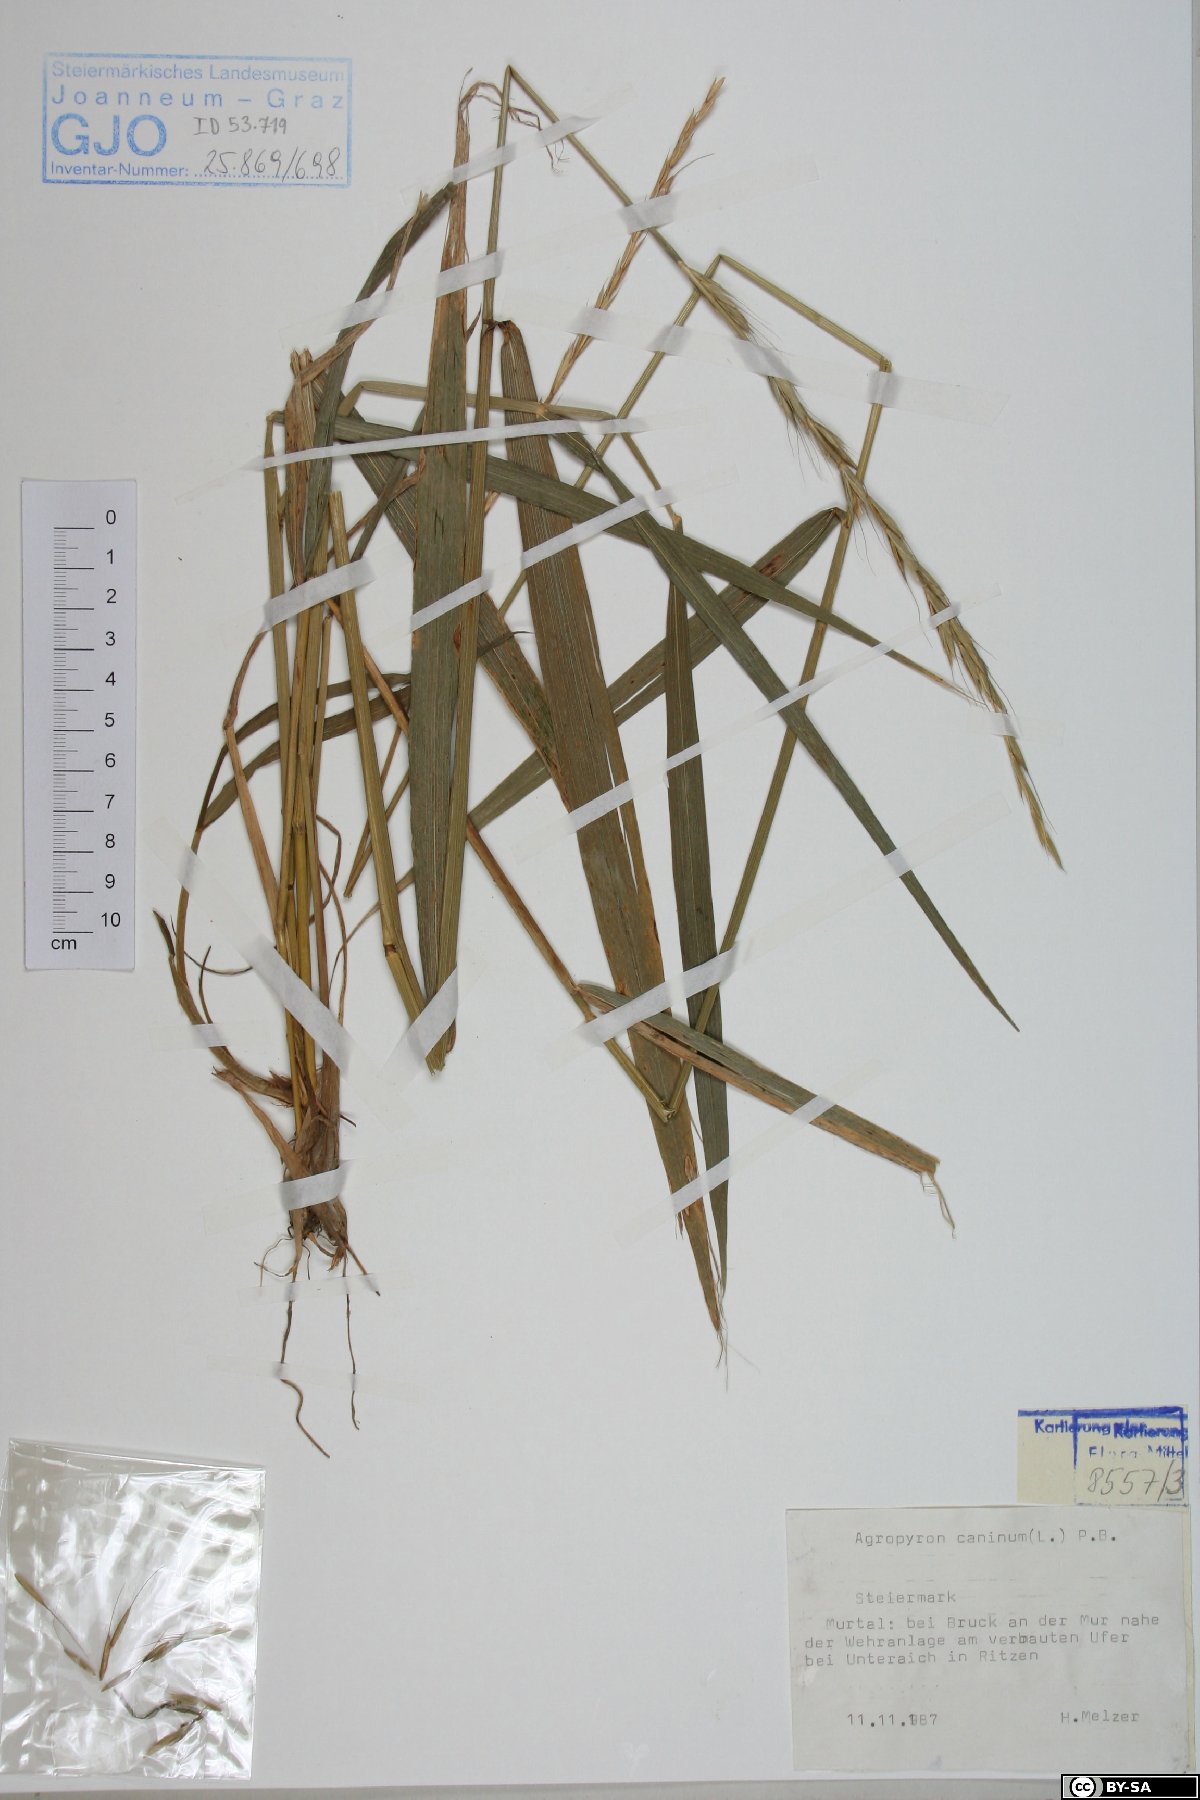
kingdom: Plantae
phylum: Tracheophyta
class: Liliopsida
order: Poales
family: Poaceae
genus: Elymus
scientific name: Elymus caninus
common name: Bearded couch
